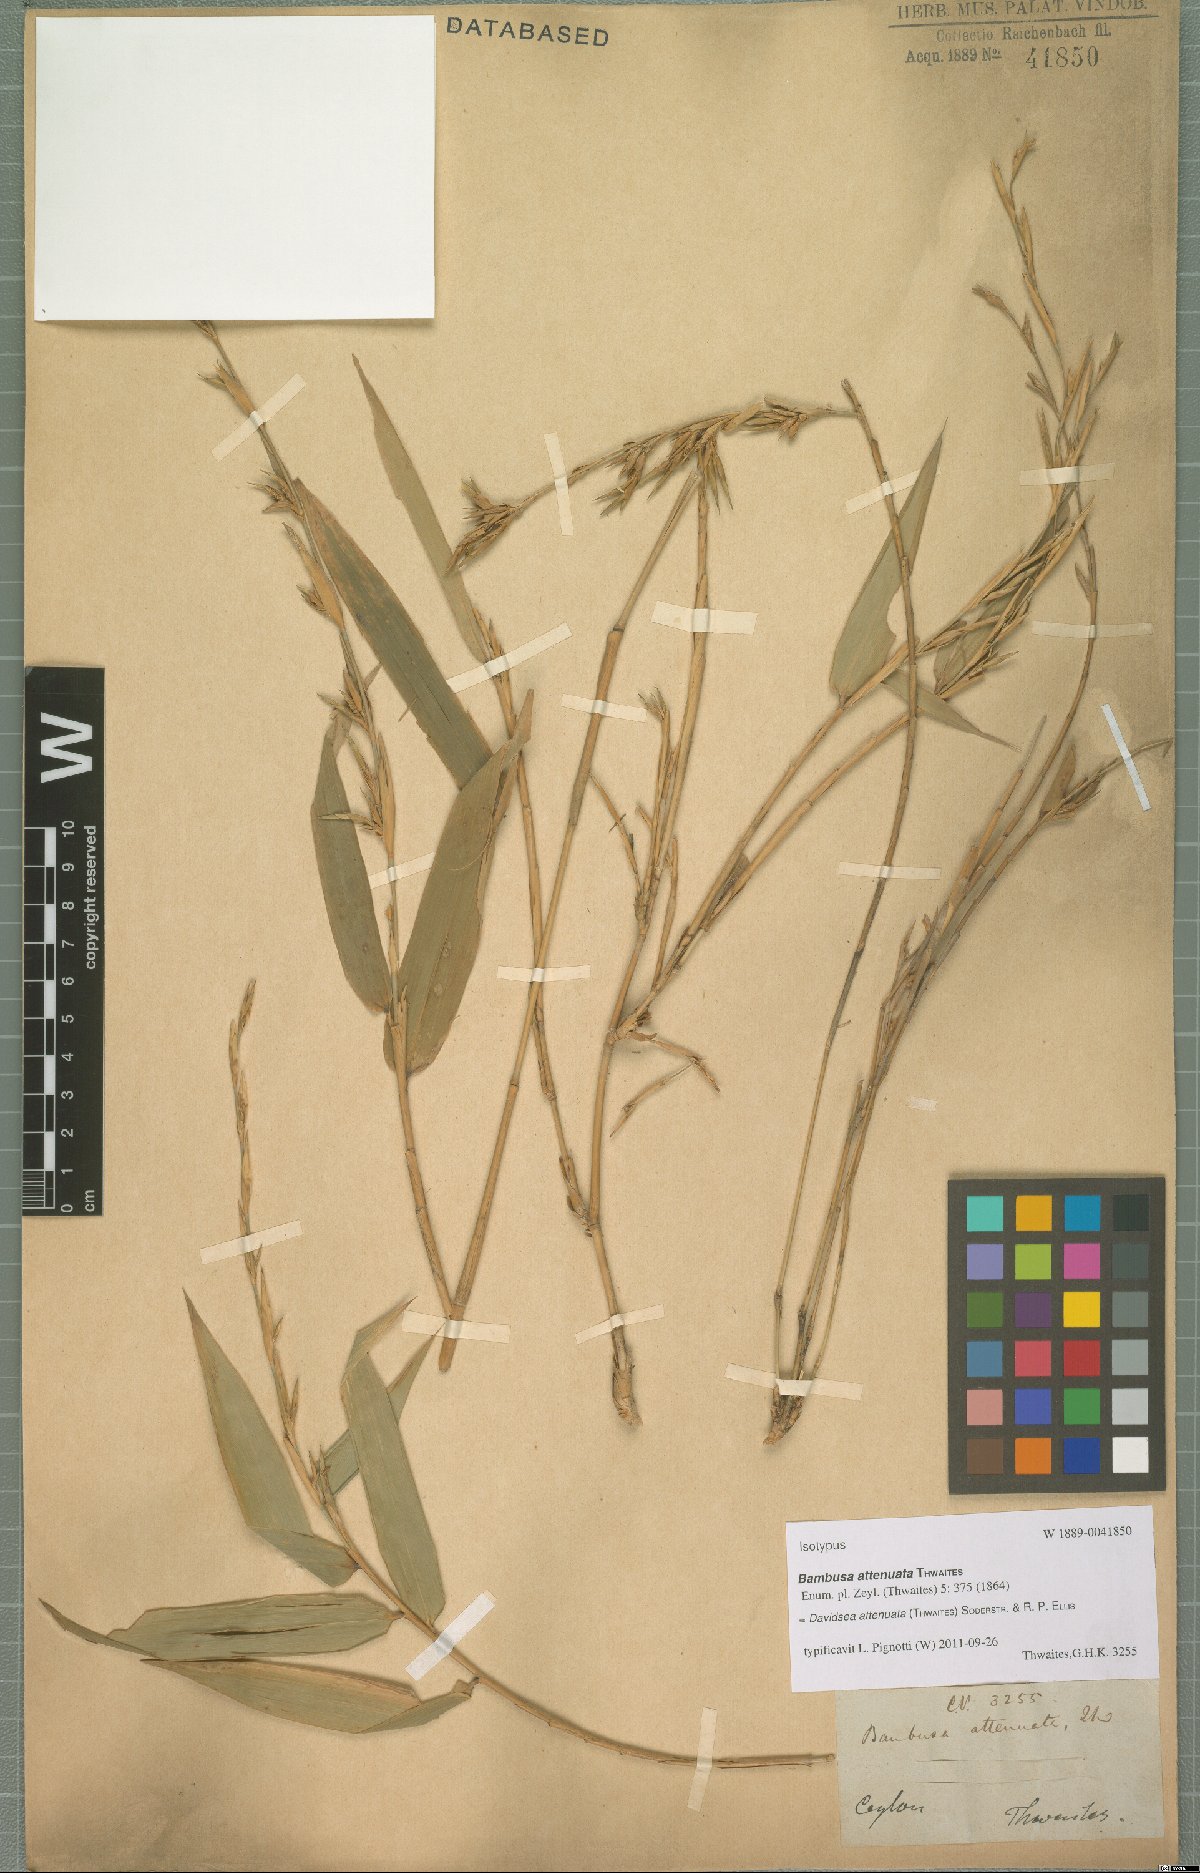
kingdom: Plantae
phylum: Tracheophyta
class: Liliopsida
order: Poales
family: Poaceae
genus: Davidsea
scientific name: Davidsea attenuata
